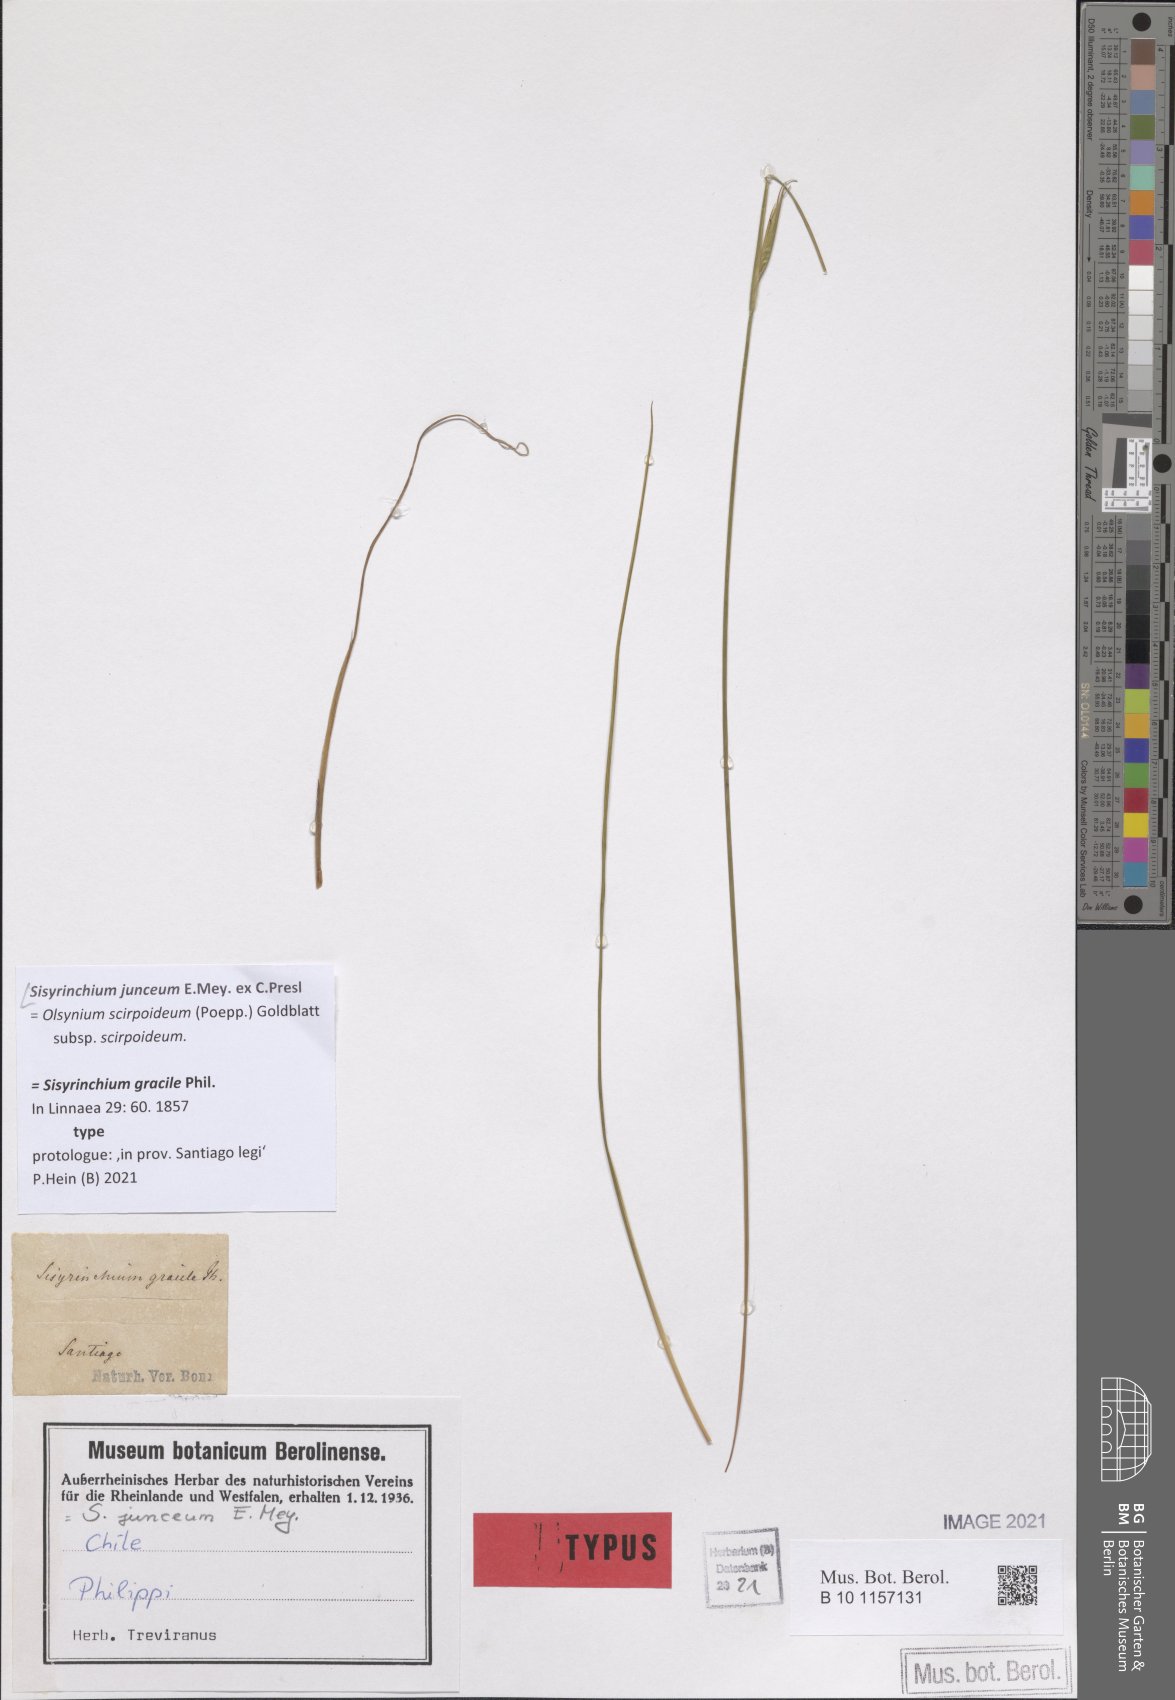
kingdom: Plantae
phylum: Tracheophyta
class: Liliopsida
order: Asparagales
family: Iridaceae
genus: Olsynium
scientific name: Olsynium junceum
